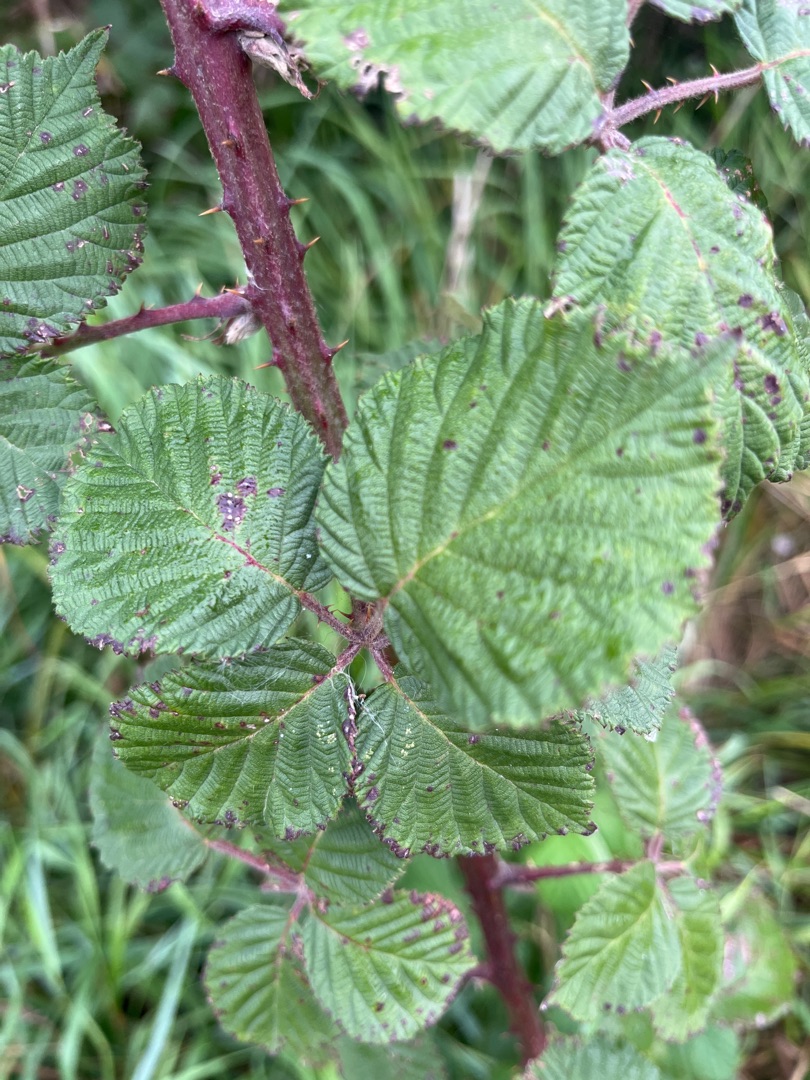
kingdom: Plantae
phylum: Tracheophyta
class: Magnoliopsida
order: Rosales
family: Rosaceae
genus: Rubus
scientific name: Rubus armeniacus
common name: Armensk brombær
